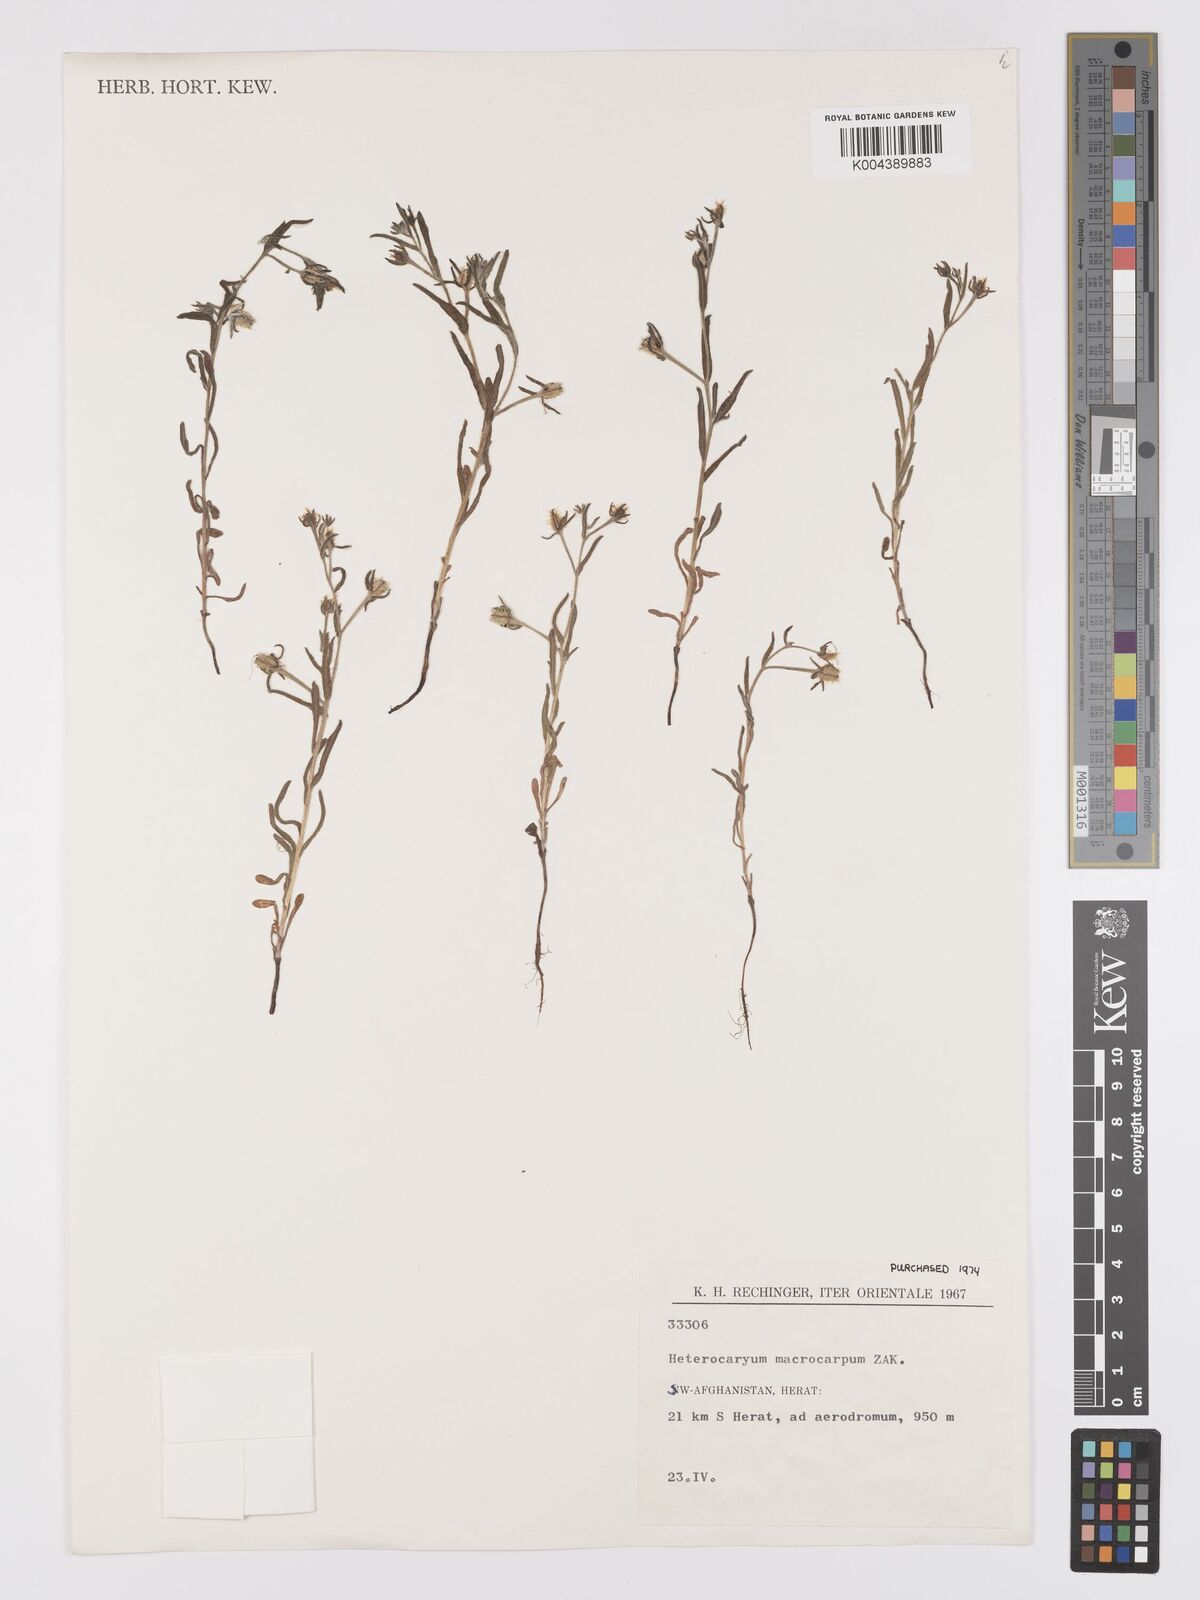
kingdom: Plantae
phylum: Tracheophyta
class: Magnoliopsida
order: Boraginales
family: Boraginaceae
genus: Lappula
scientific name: Lappula
